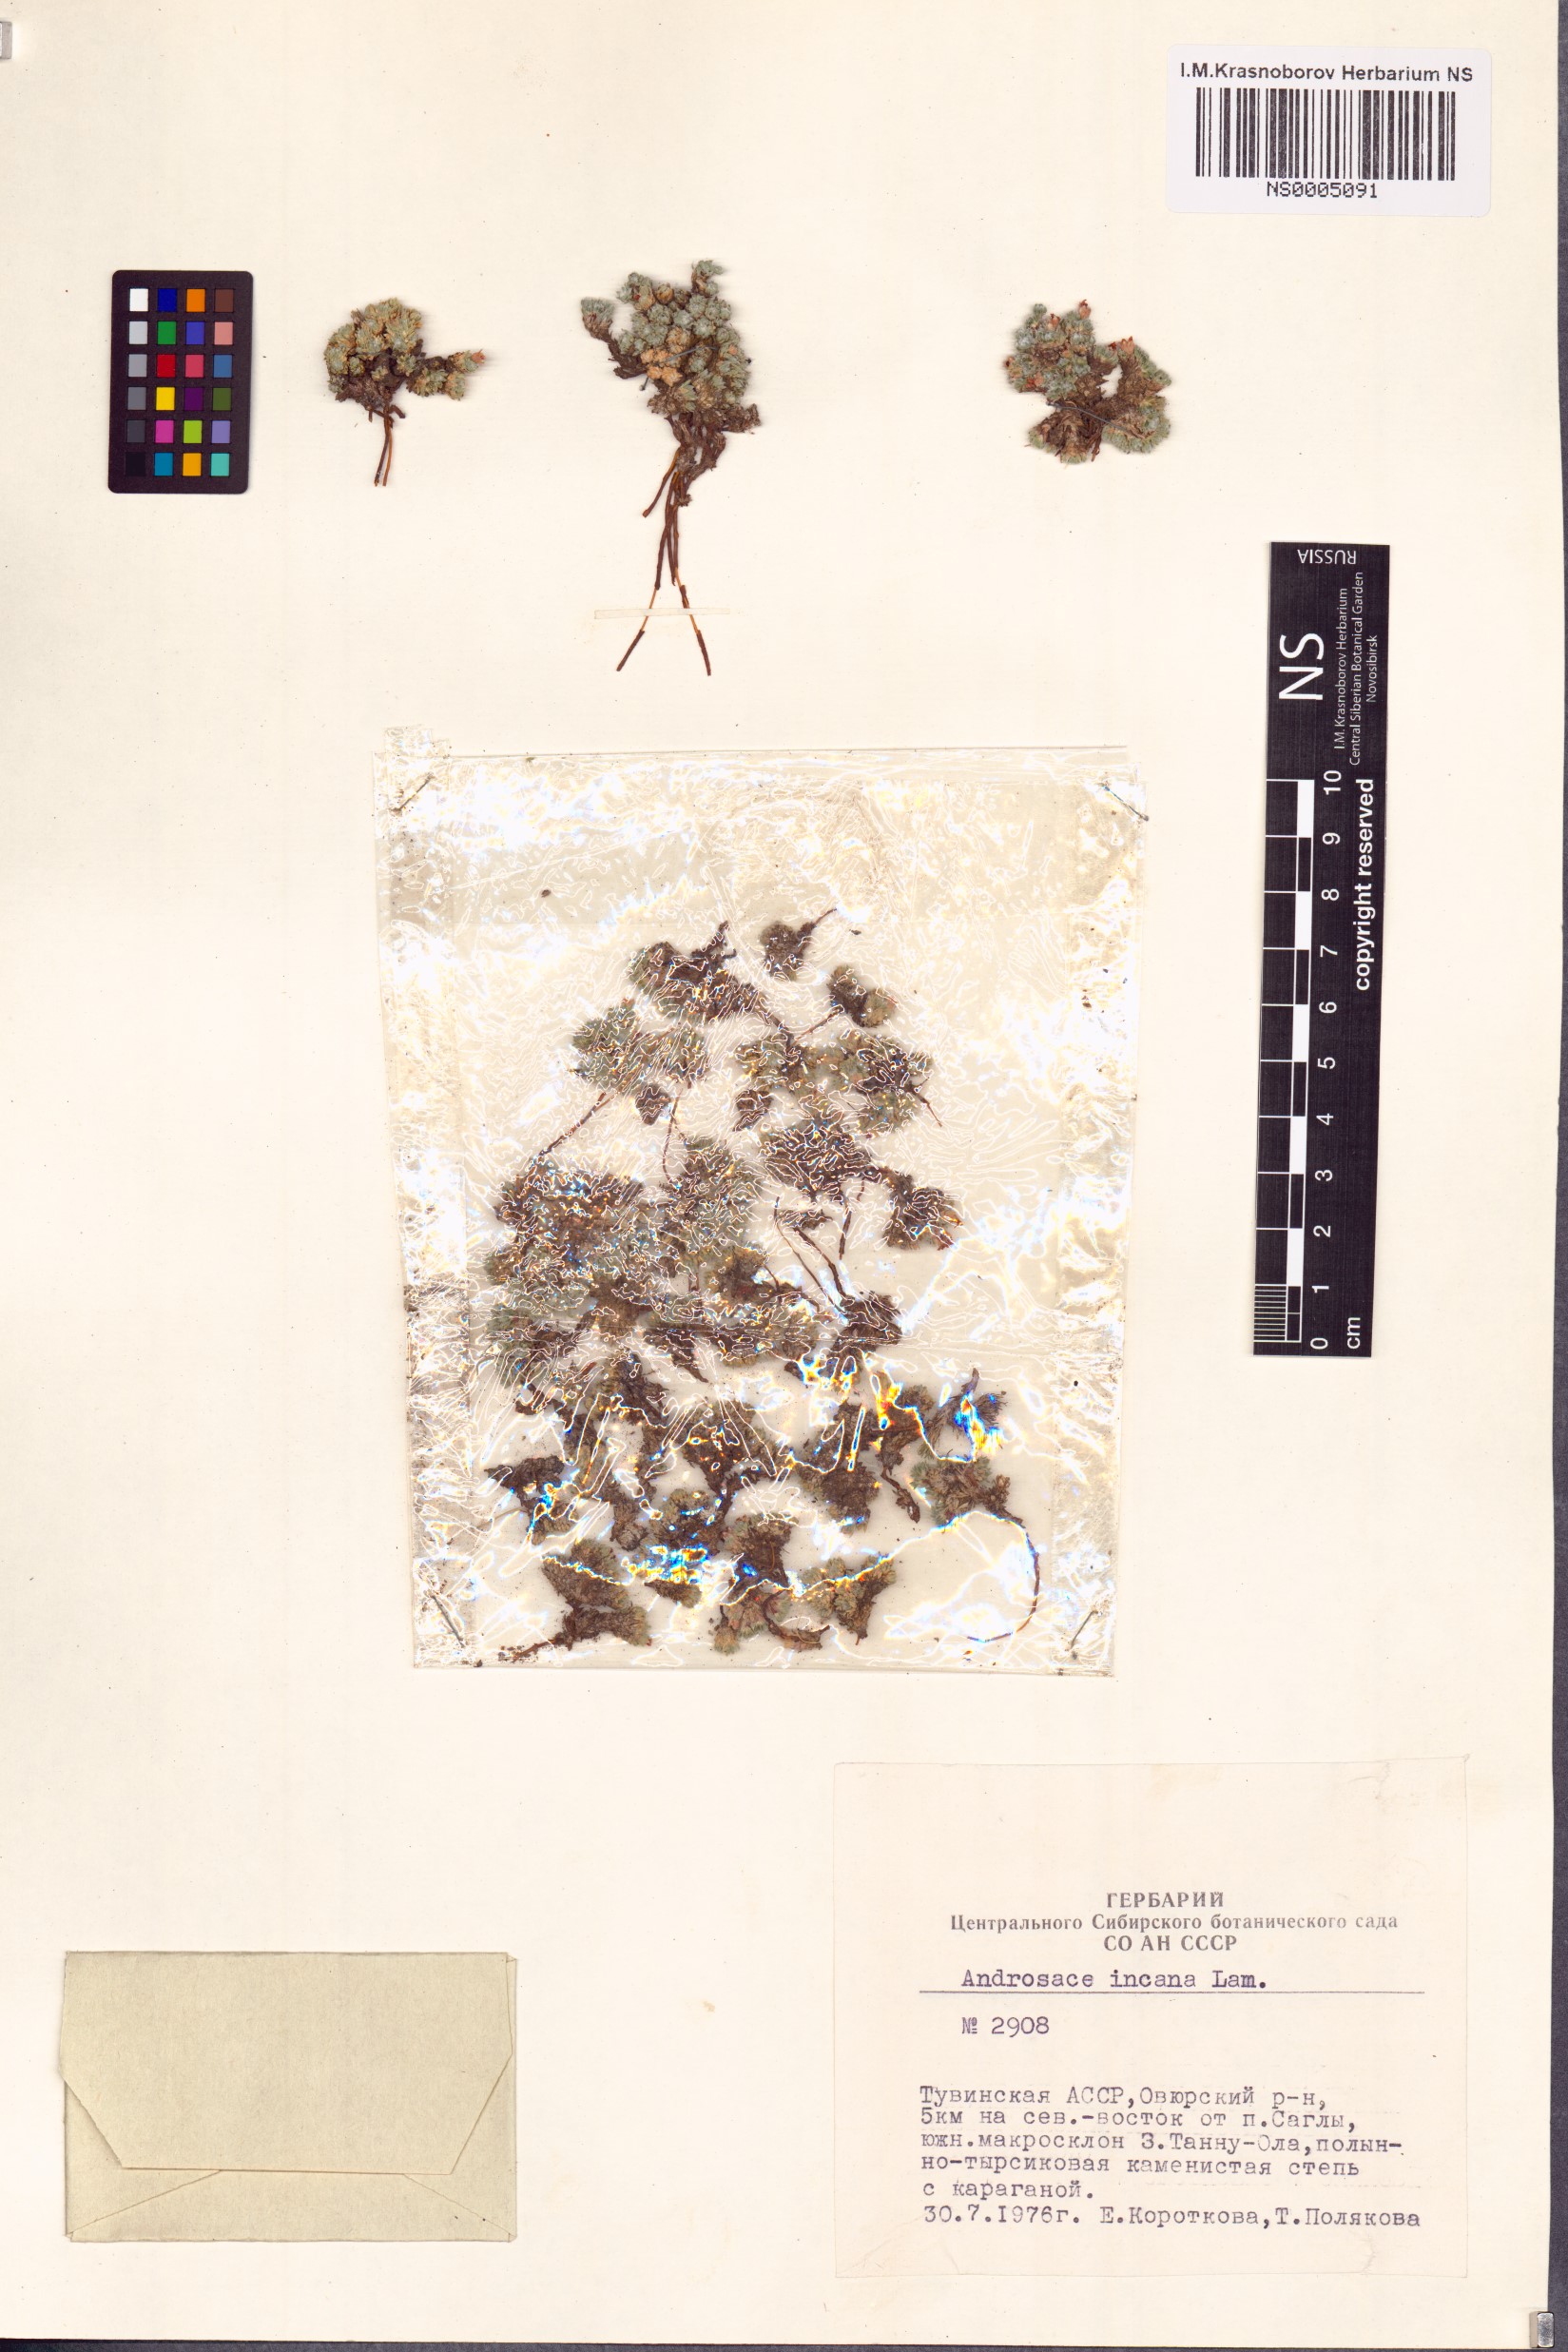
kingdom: Plantae
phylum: Tracheophyta
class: Magnoliopsida
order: Ericales
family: Primulaceae
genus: Androsace
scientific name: Androsace incana
